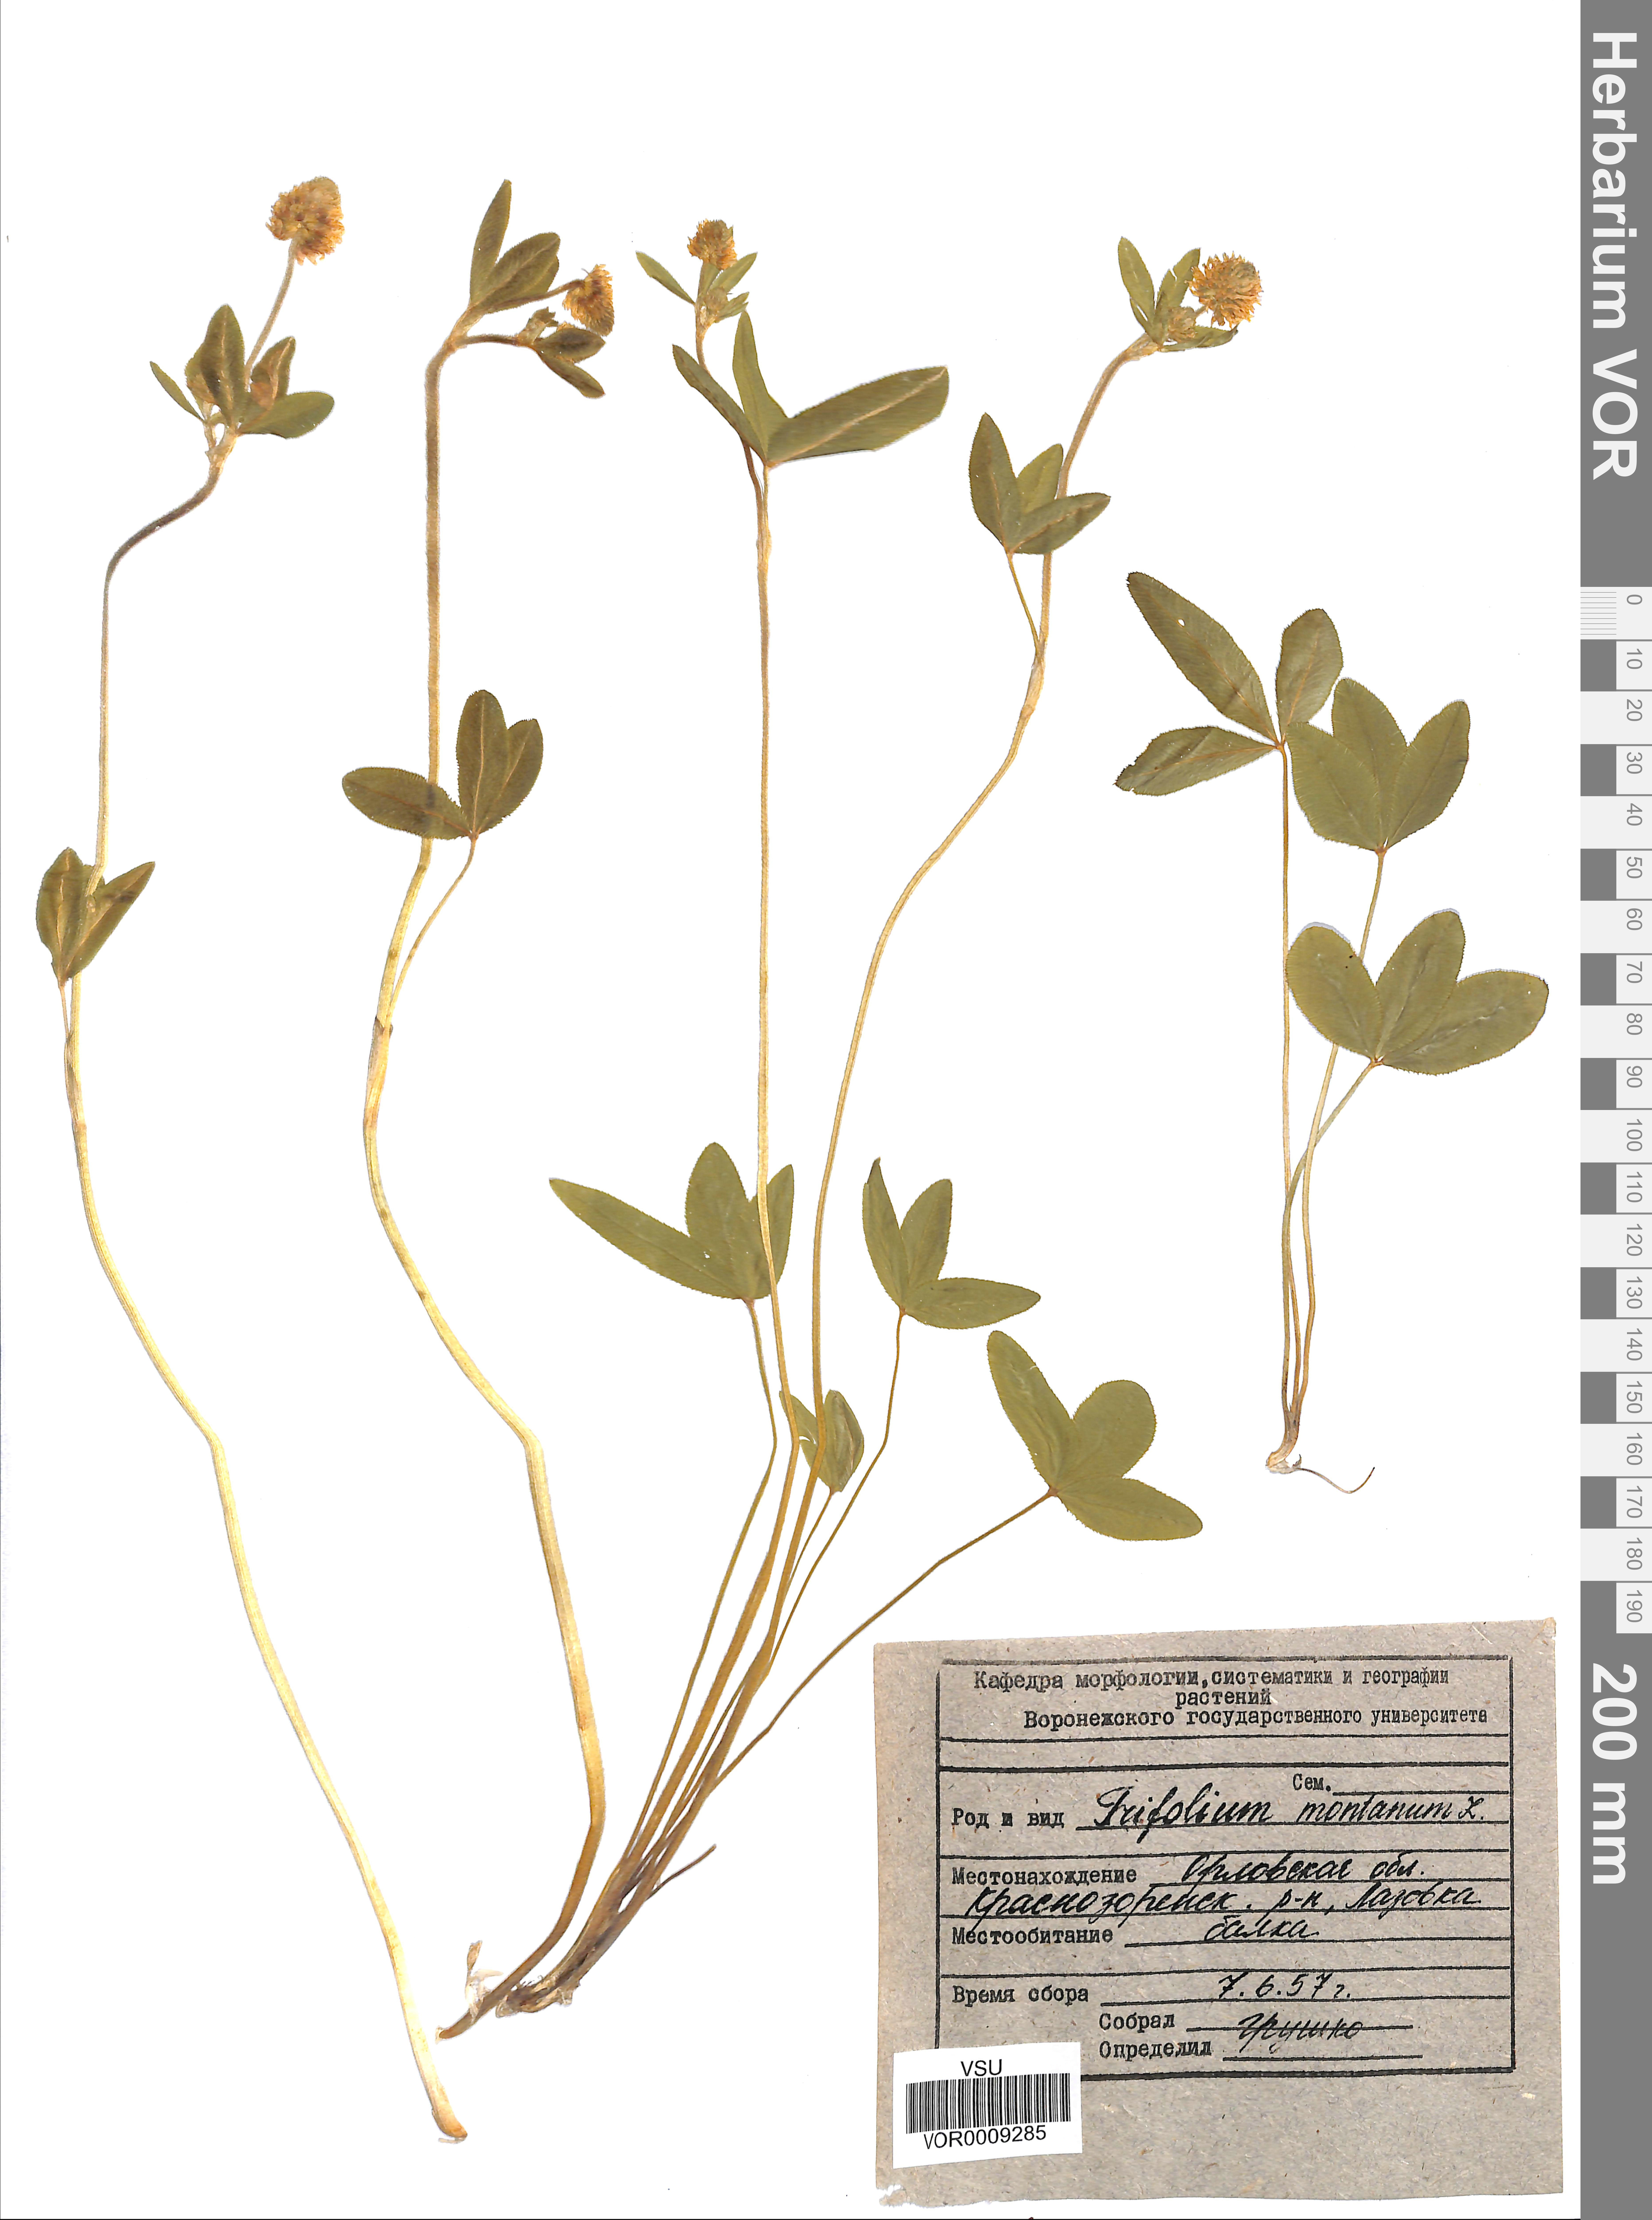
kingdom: Plantae
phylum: Tracheophyta
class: Magnoliopsida
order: Fabales
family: Fabaceae
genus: Trifolium
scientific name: Trifolium montanum
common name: Mountain clover
